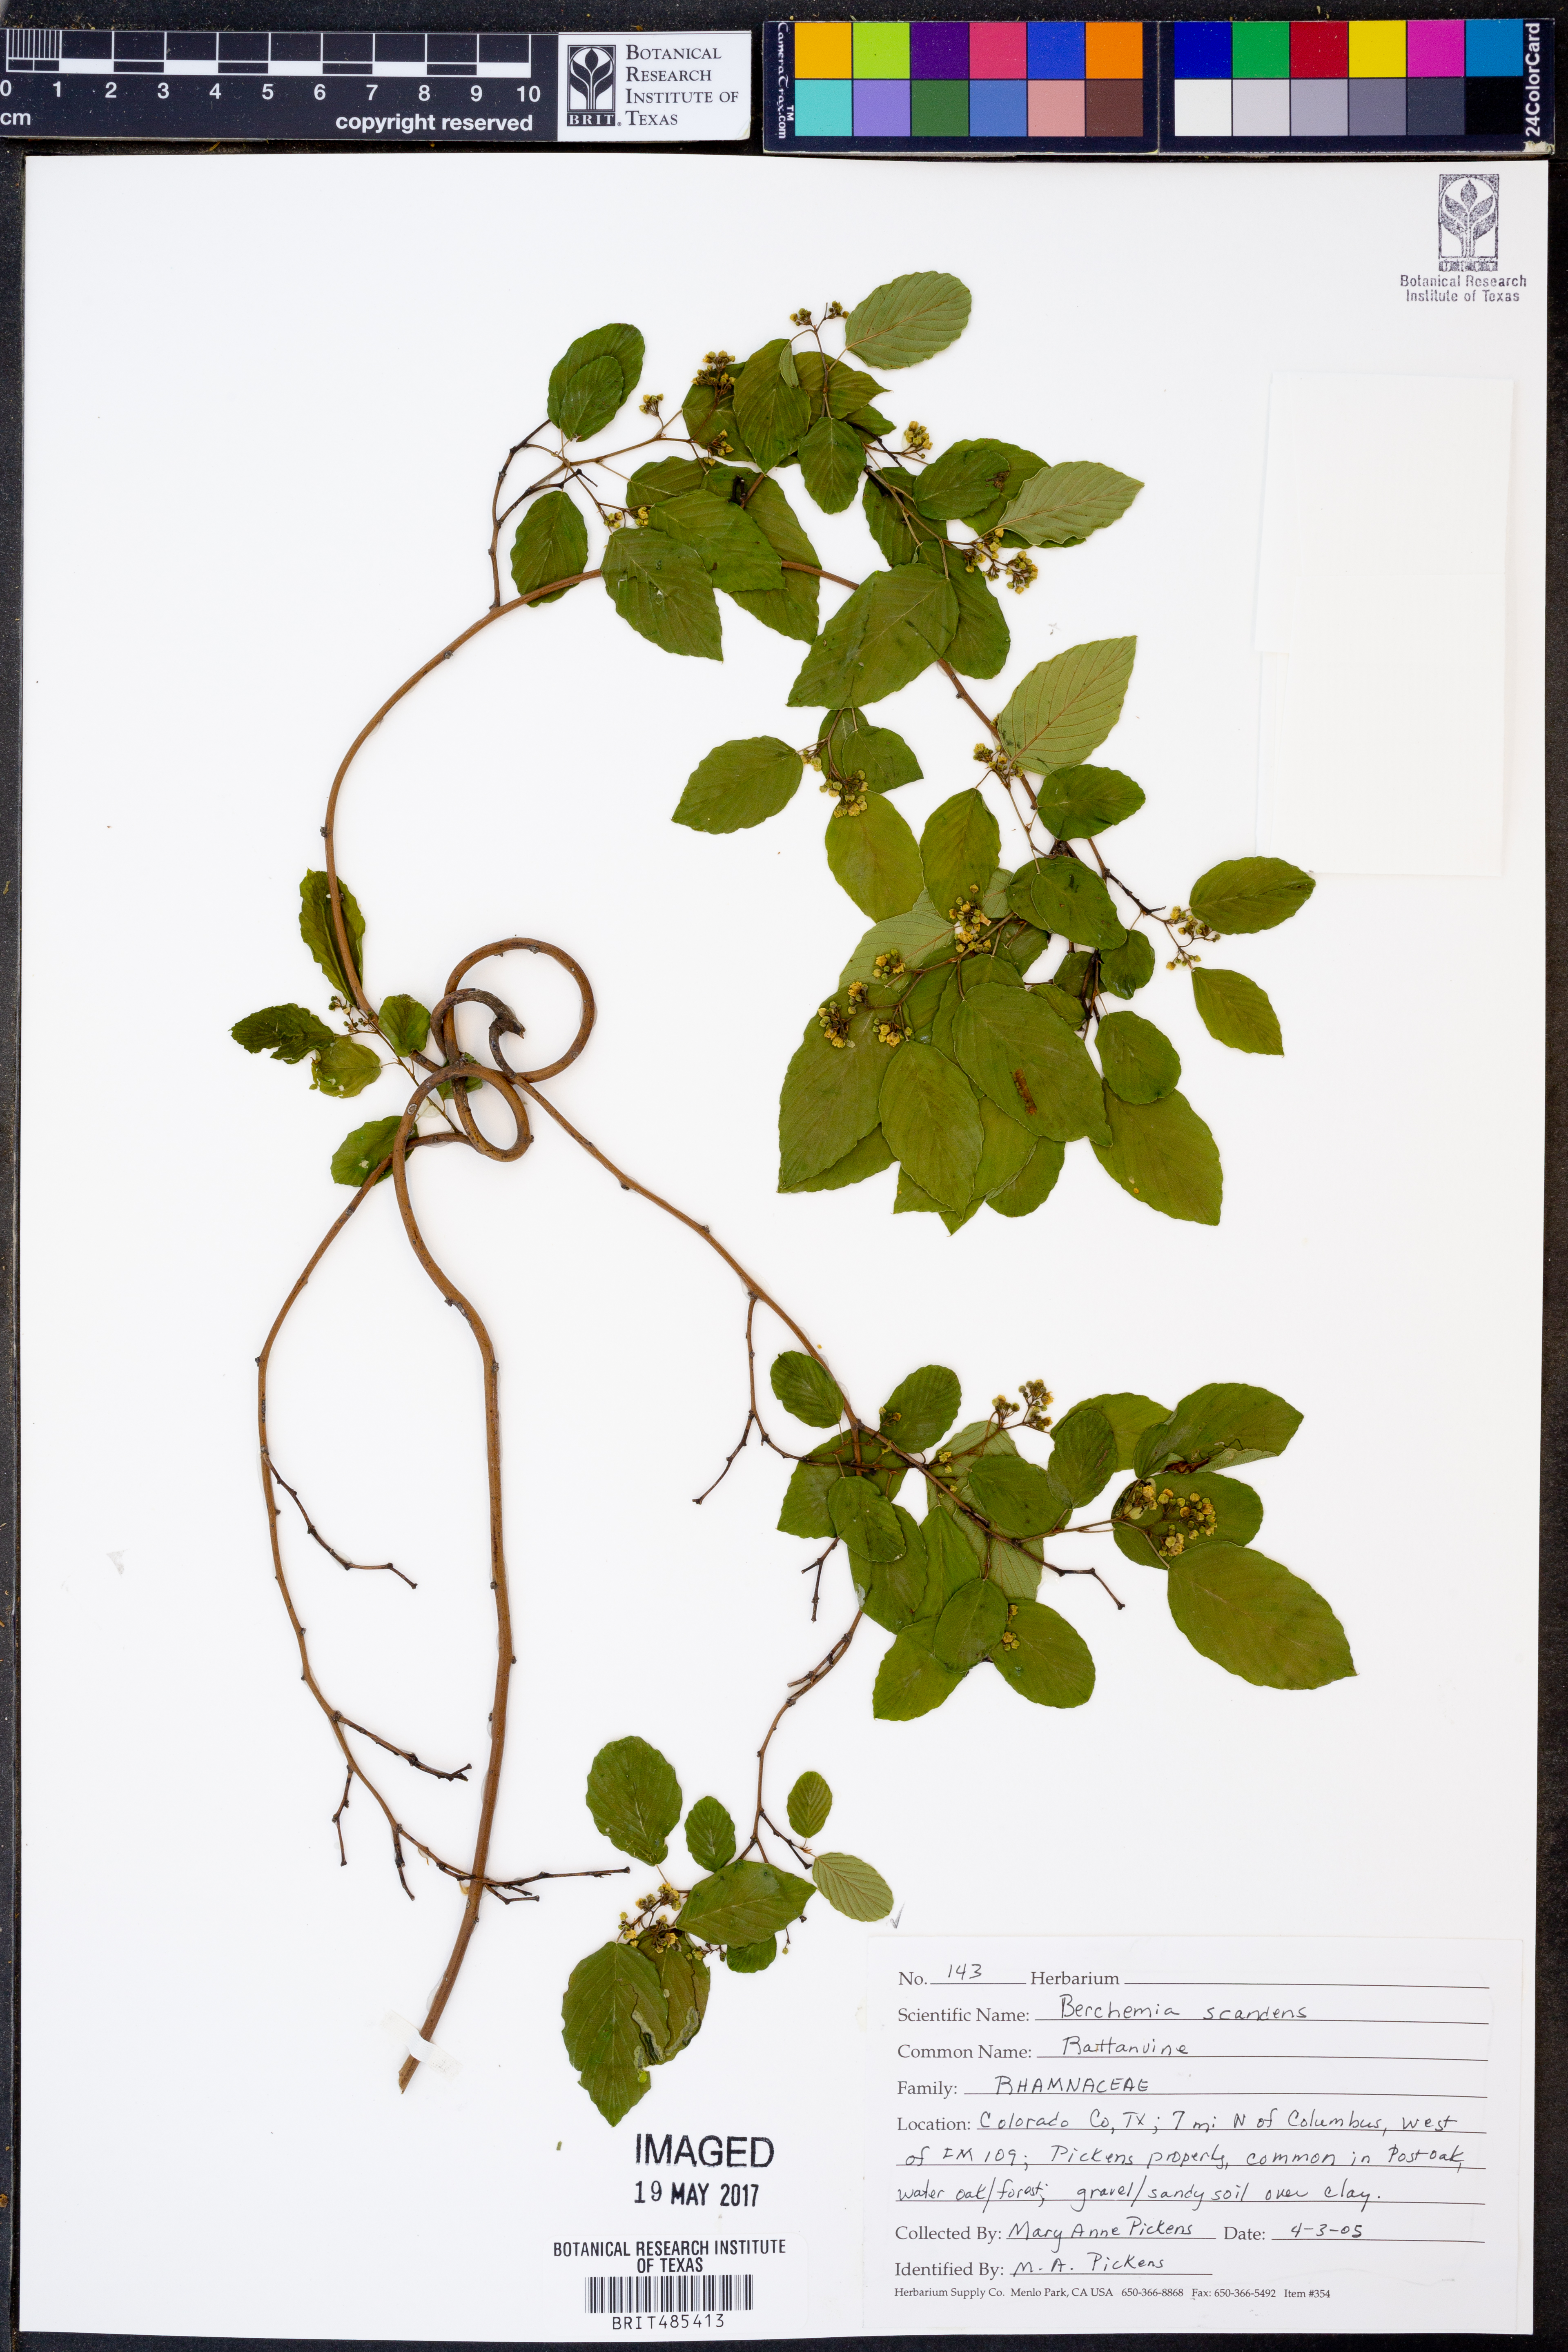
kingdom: Plantae
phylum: Tracheophyta
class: Magnoliopsida
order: Rosales
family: Rhamnaceae
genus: Berchemia
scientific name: Berchemia scandens
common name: Supplejack
